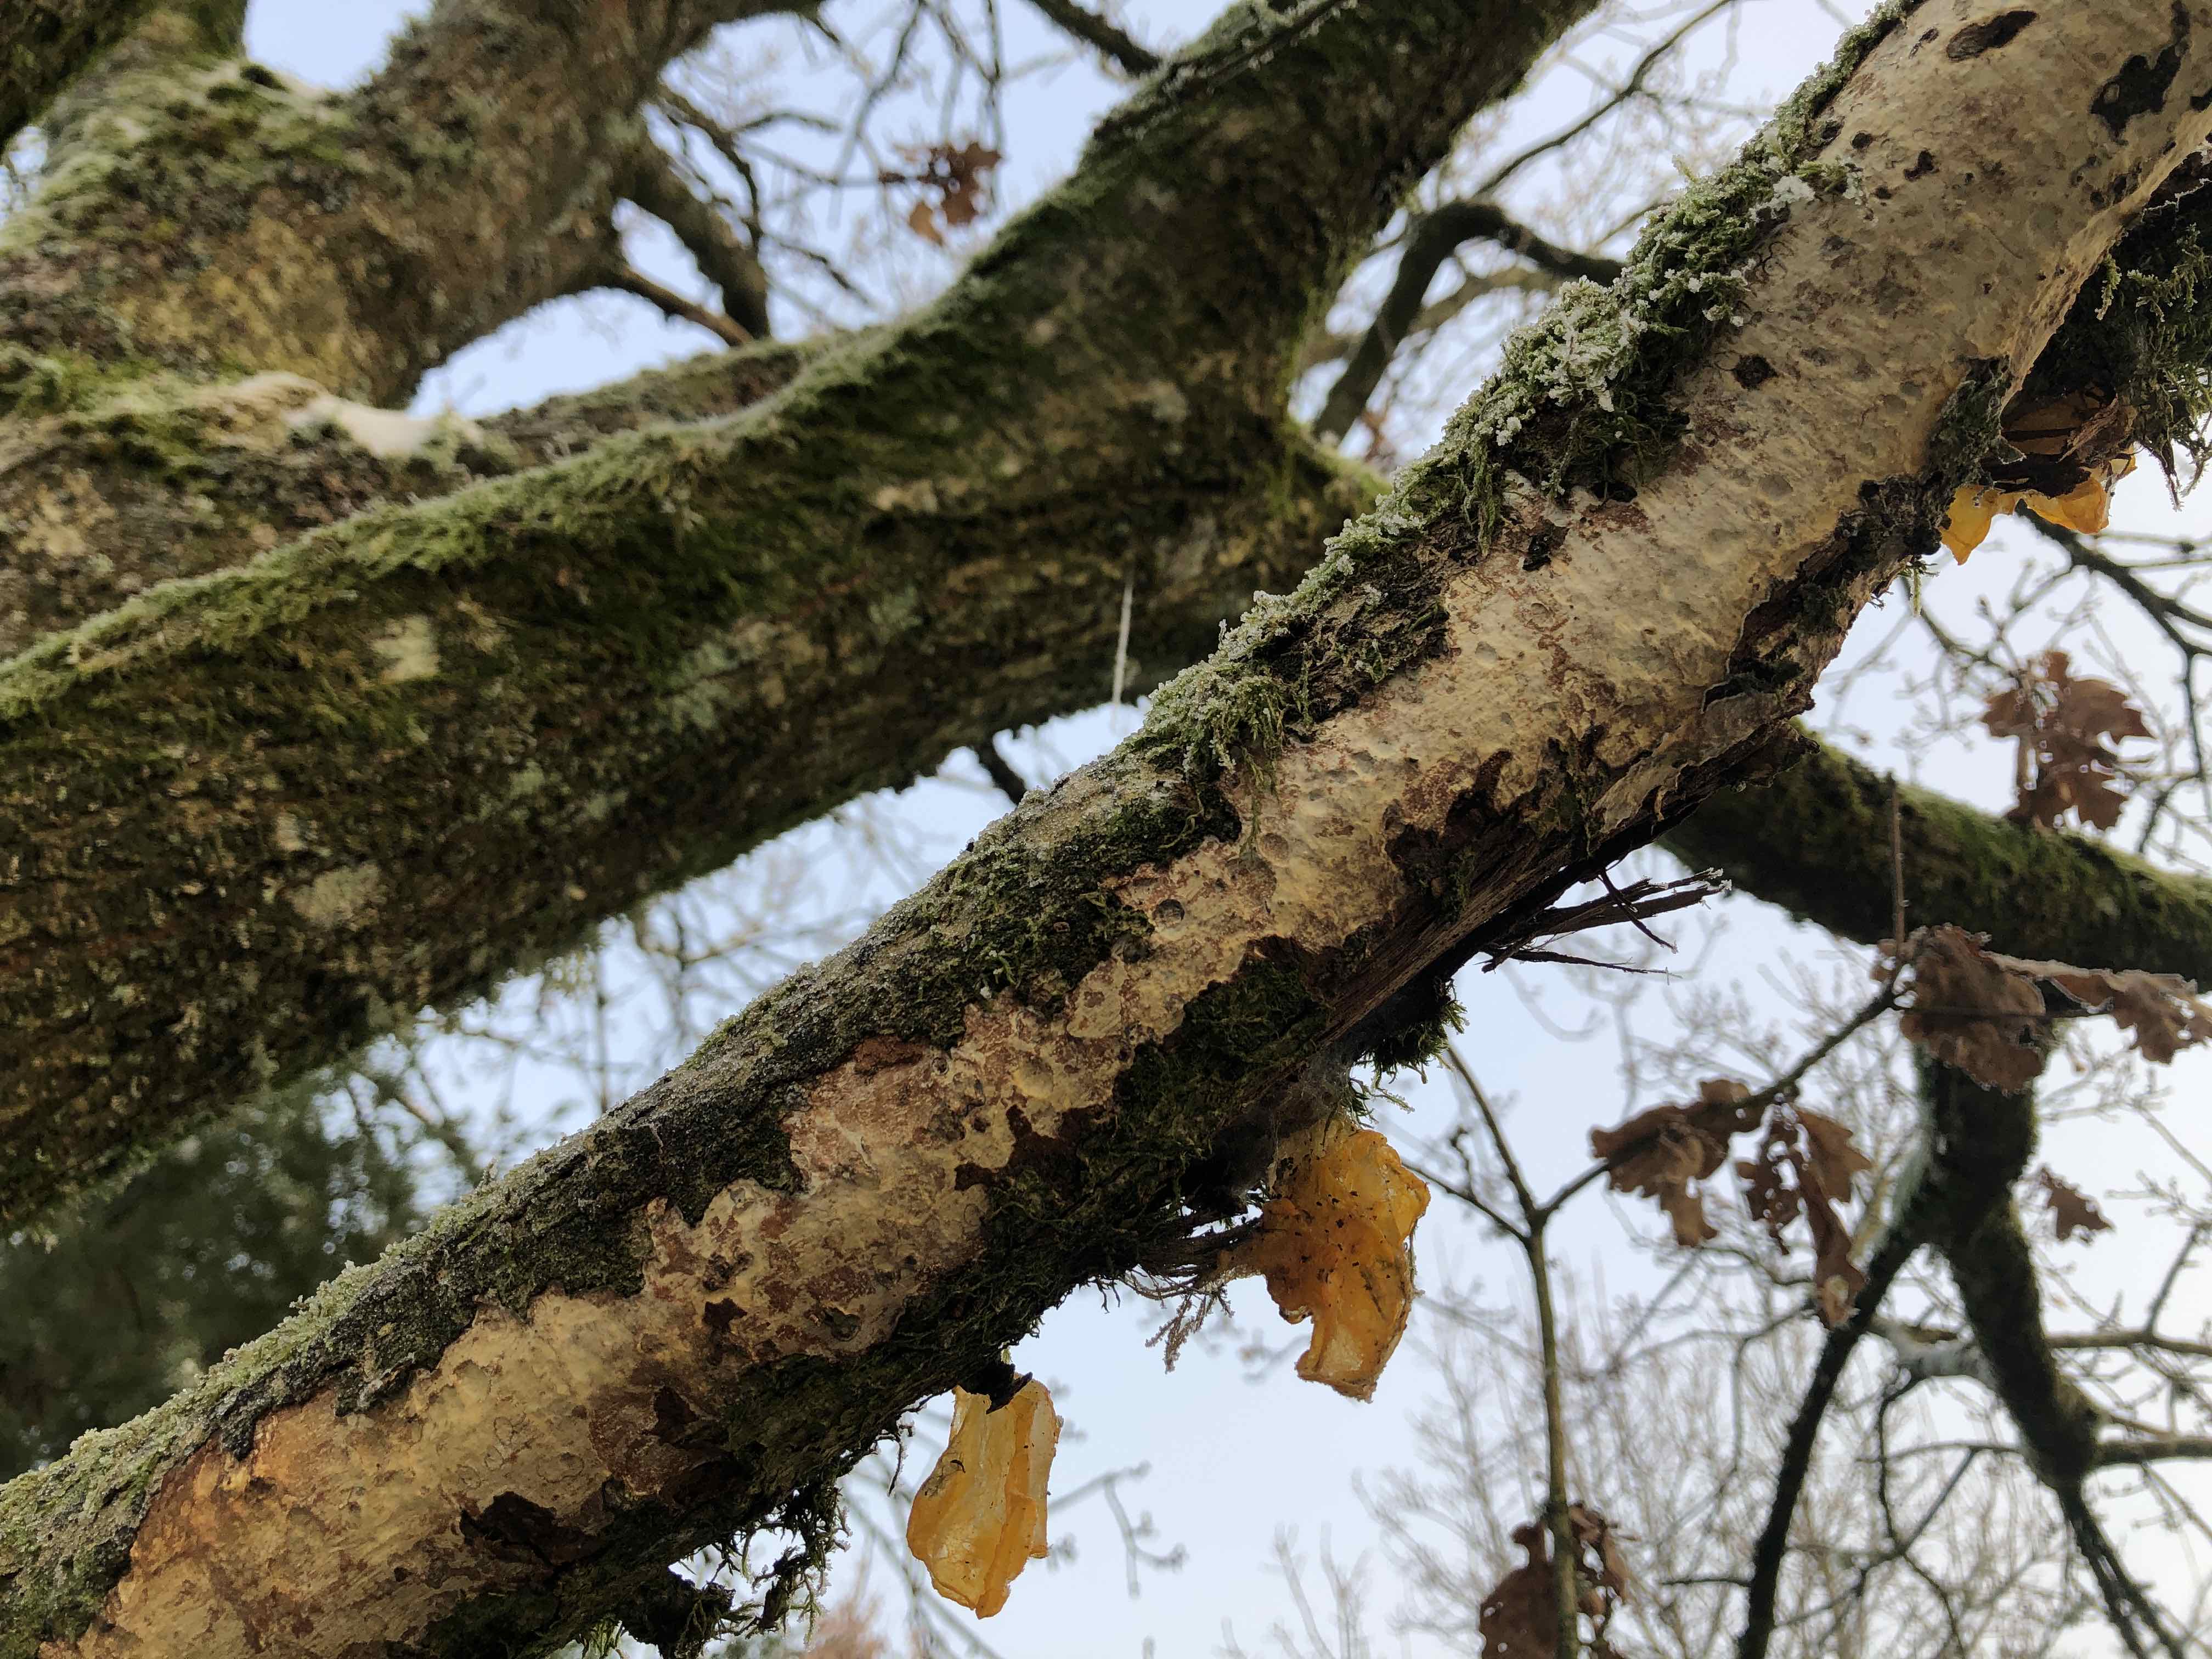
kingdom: Fungi
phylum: Basidiomycota
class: Agaricomycetes
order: Corticiales
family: Vuilleminiaceae
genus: Vuilleminia
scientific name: Vuilleminia comedens
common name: almindelig barksprænger
